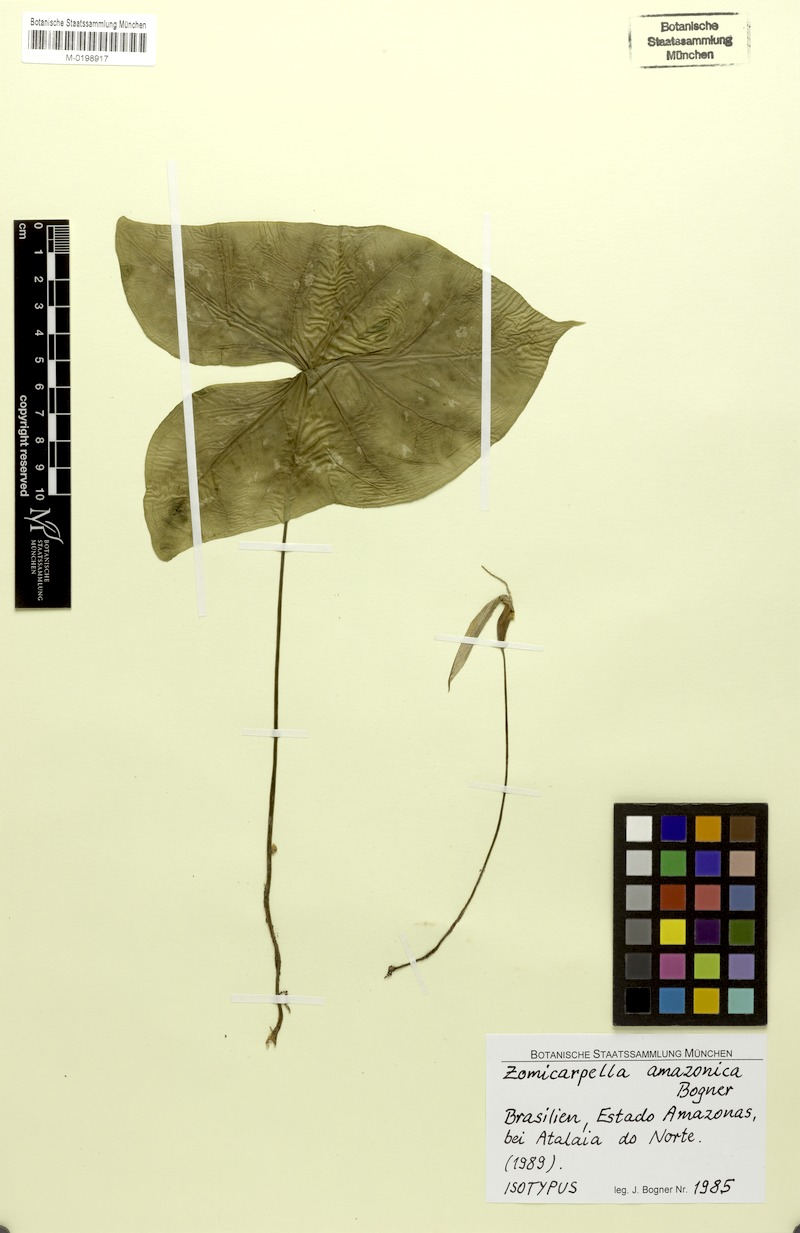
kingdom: Plantae
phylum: Tracheophyta
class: Liliopsida
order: Alismatales
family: Araceae
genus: Zomicarpella
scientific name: Zomicarpella amazonica
